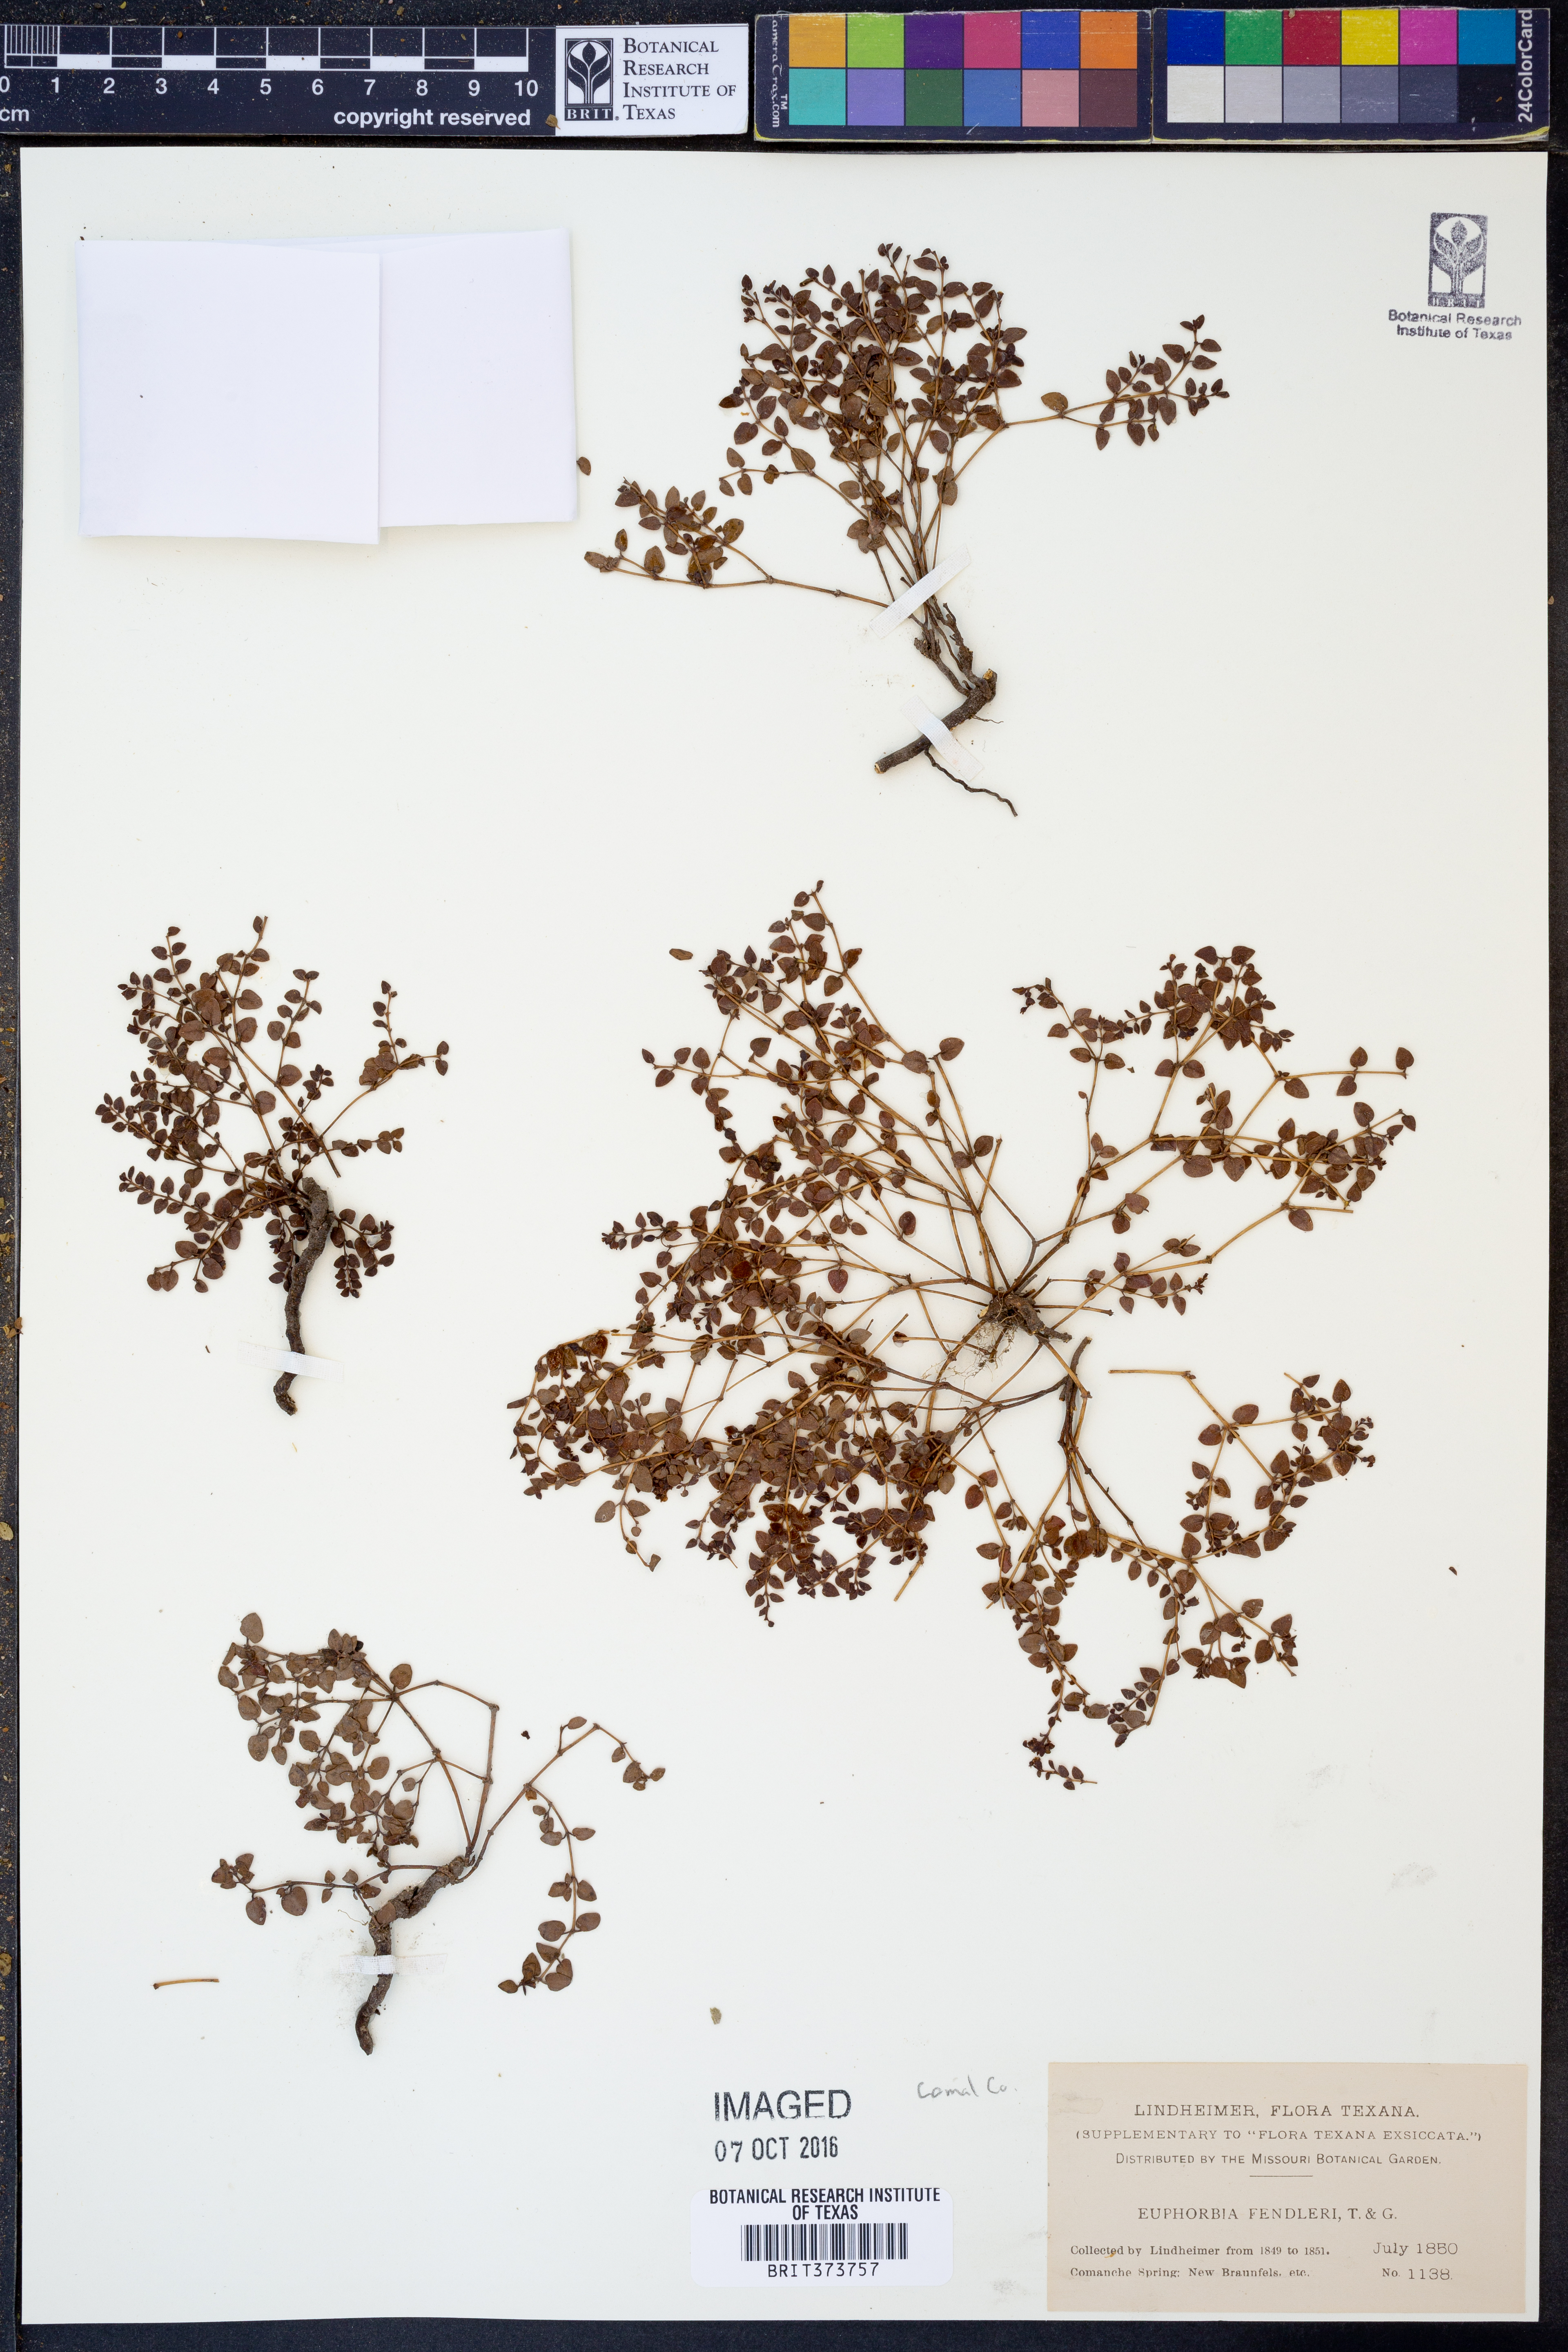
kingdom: Plantae
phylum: Tracheophyta
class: Magnoliopsida
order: Malpighiales
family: Euphorbiaceae
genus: Euphorbia
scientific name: Euphorbia fendleri
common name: Fendler's euphorbia
